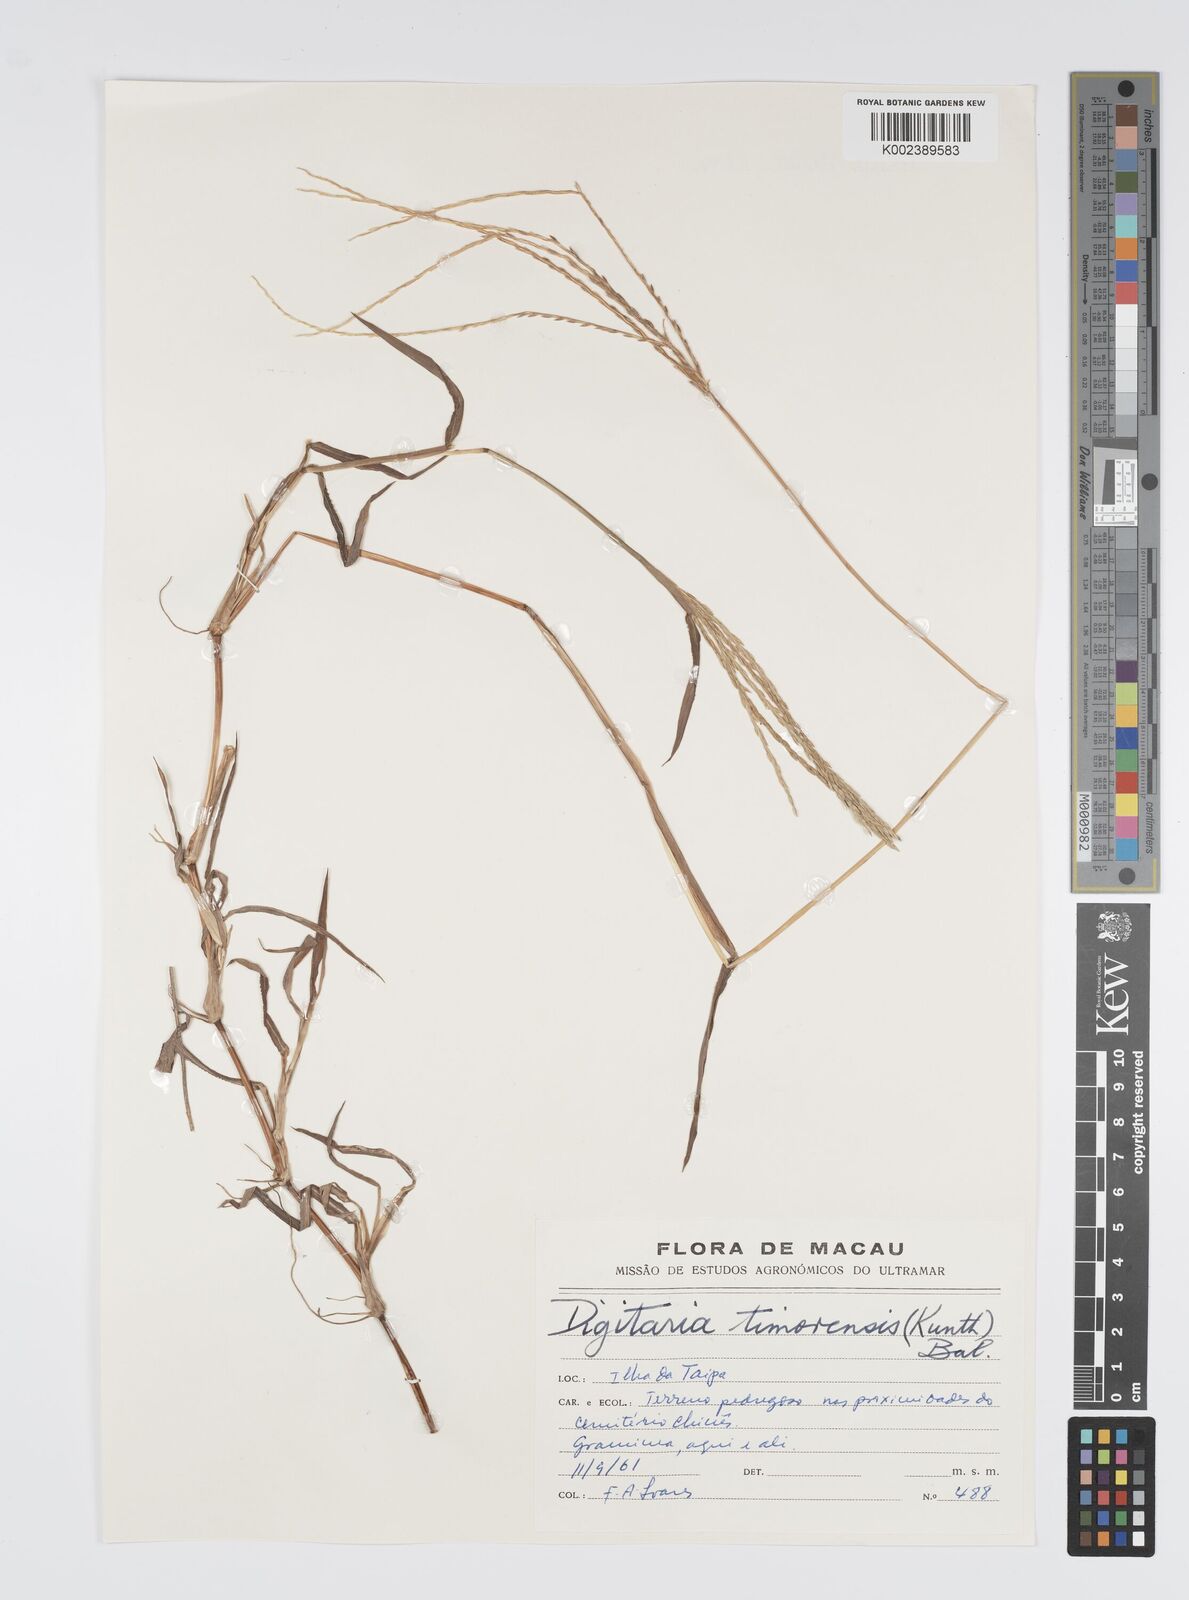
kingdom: Plantae
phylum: Tracheophyta
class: Liliopsida
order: Poales
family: Poaceae
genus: Digitaria
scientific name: Digitaria ciliaris
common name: Tropical finger-grass
